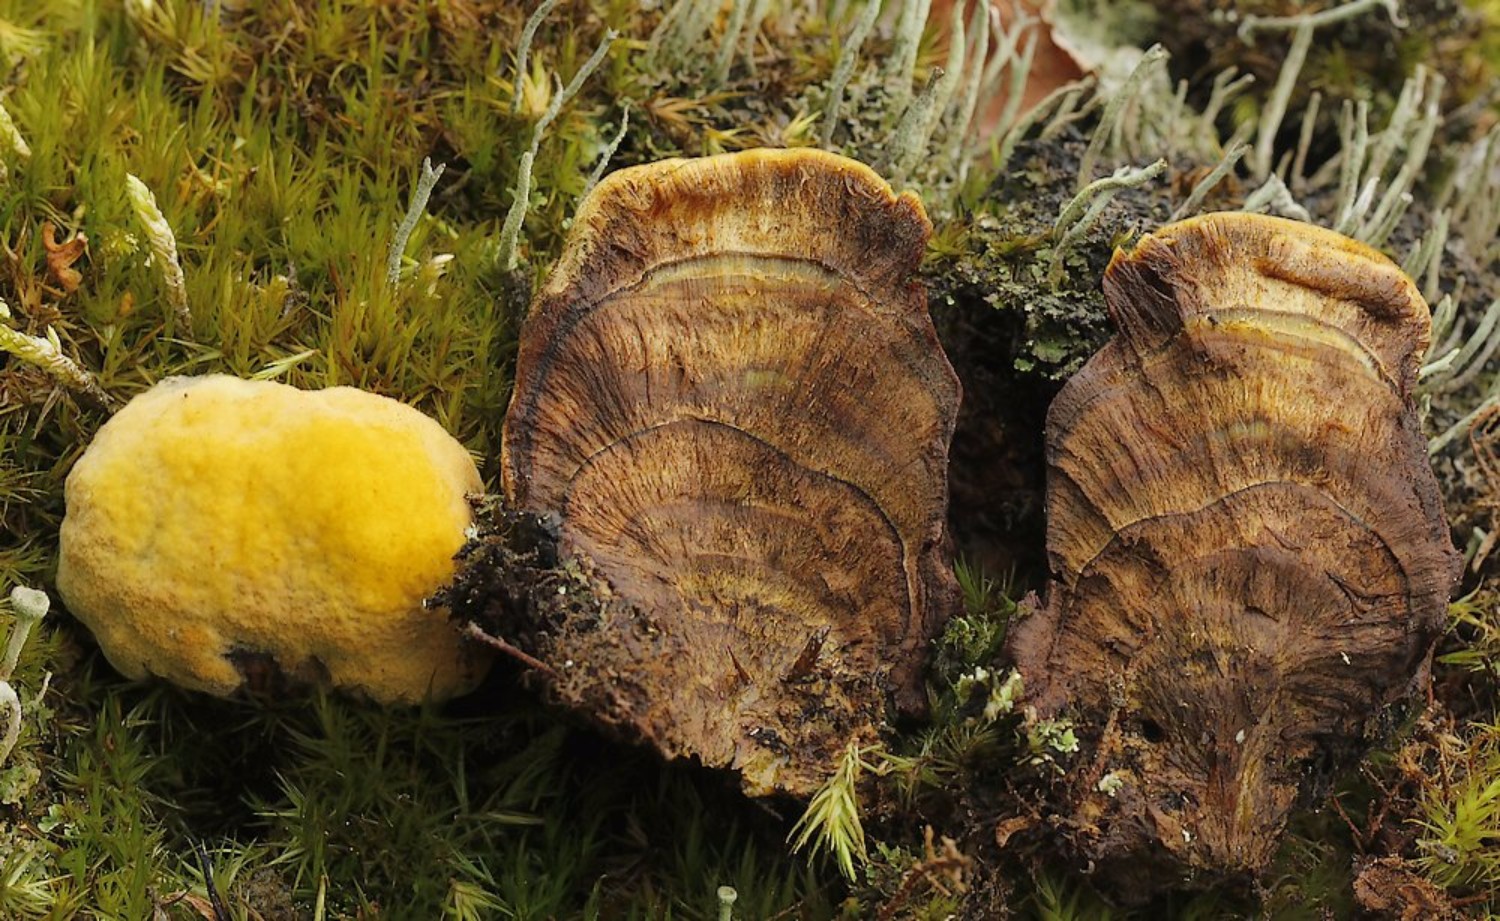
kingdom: Fungi
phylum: Basidiomycota
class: Agaricomycetes
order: Polyporales
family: Laetiporaceae
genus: Phaeolus
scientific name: Phaeolus schweinitzii
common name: brunporesvamp
